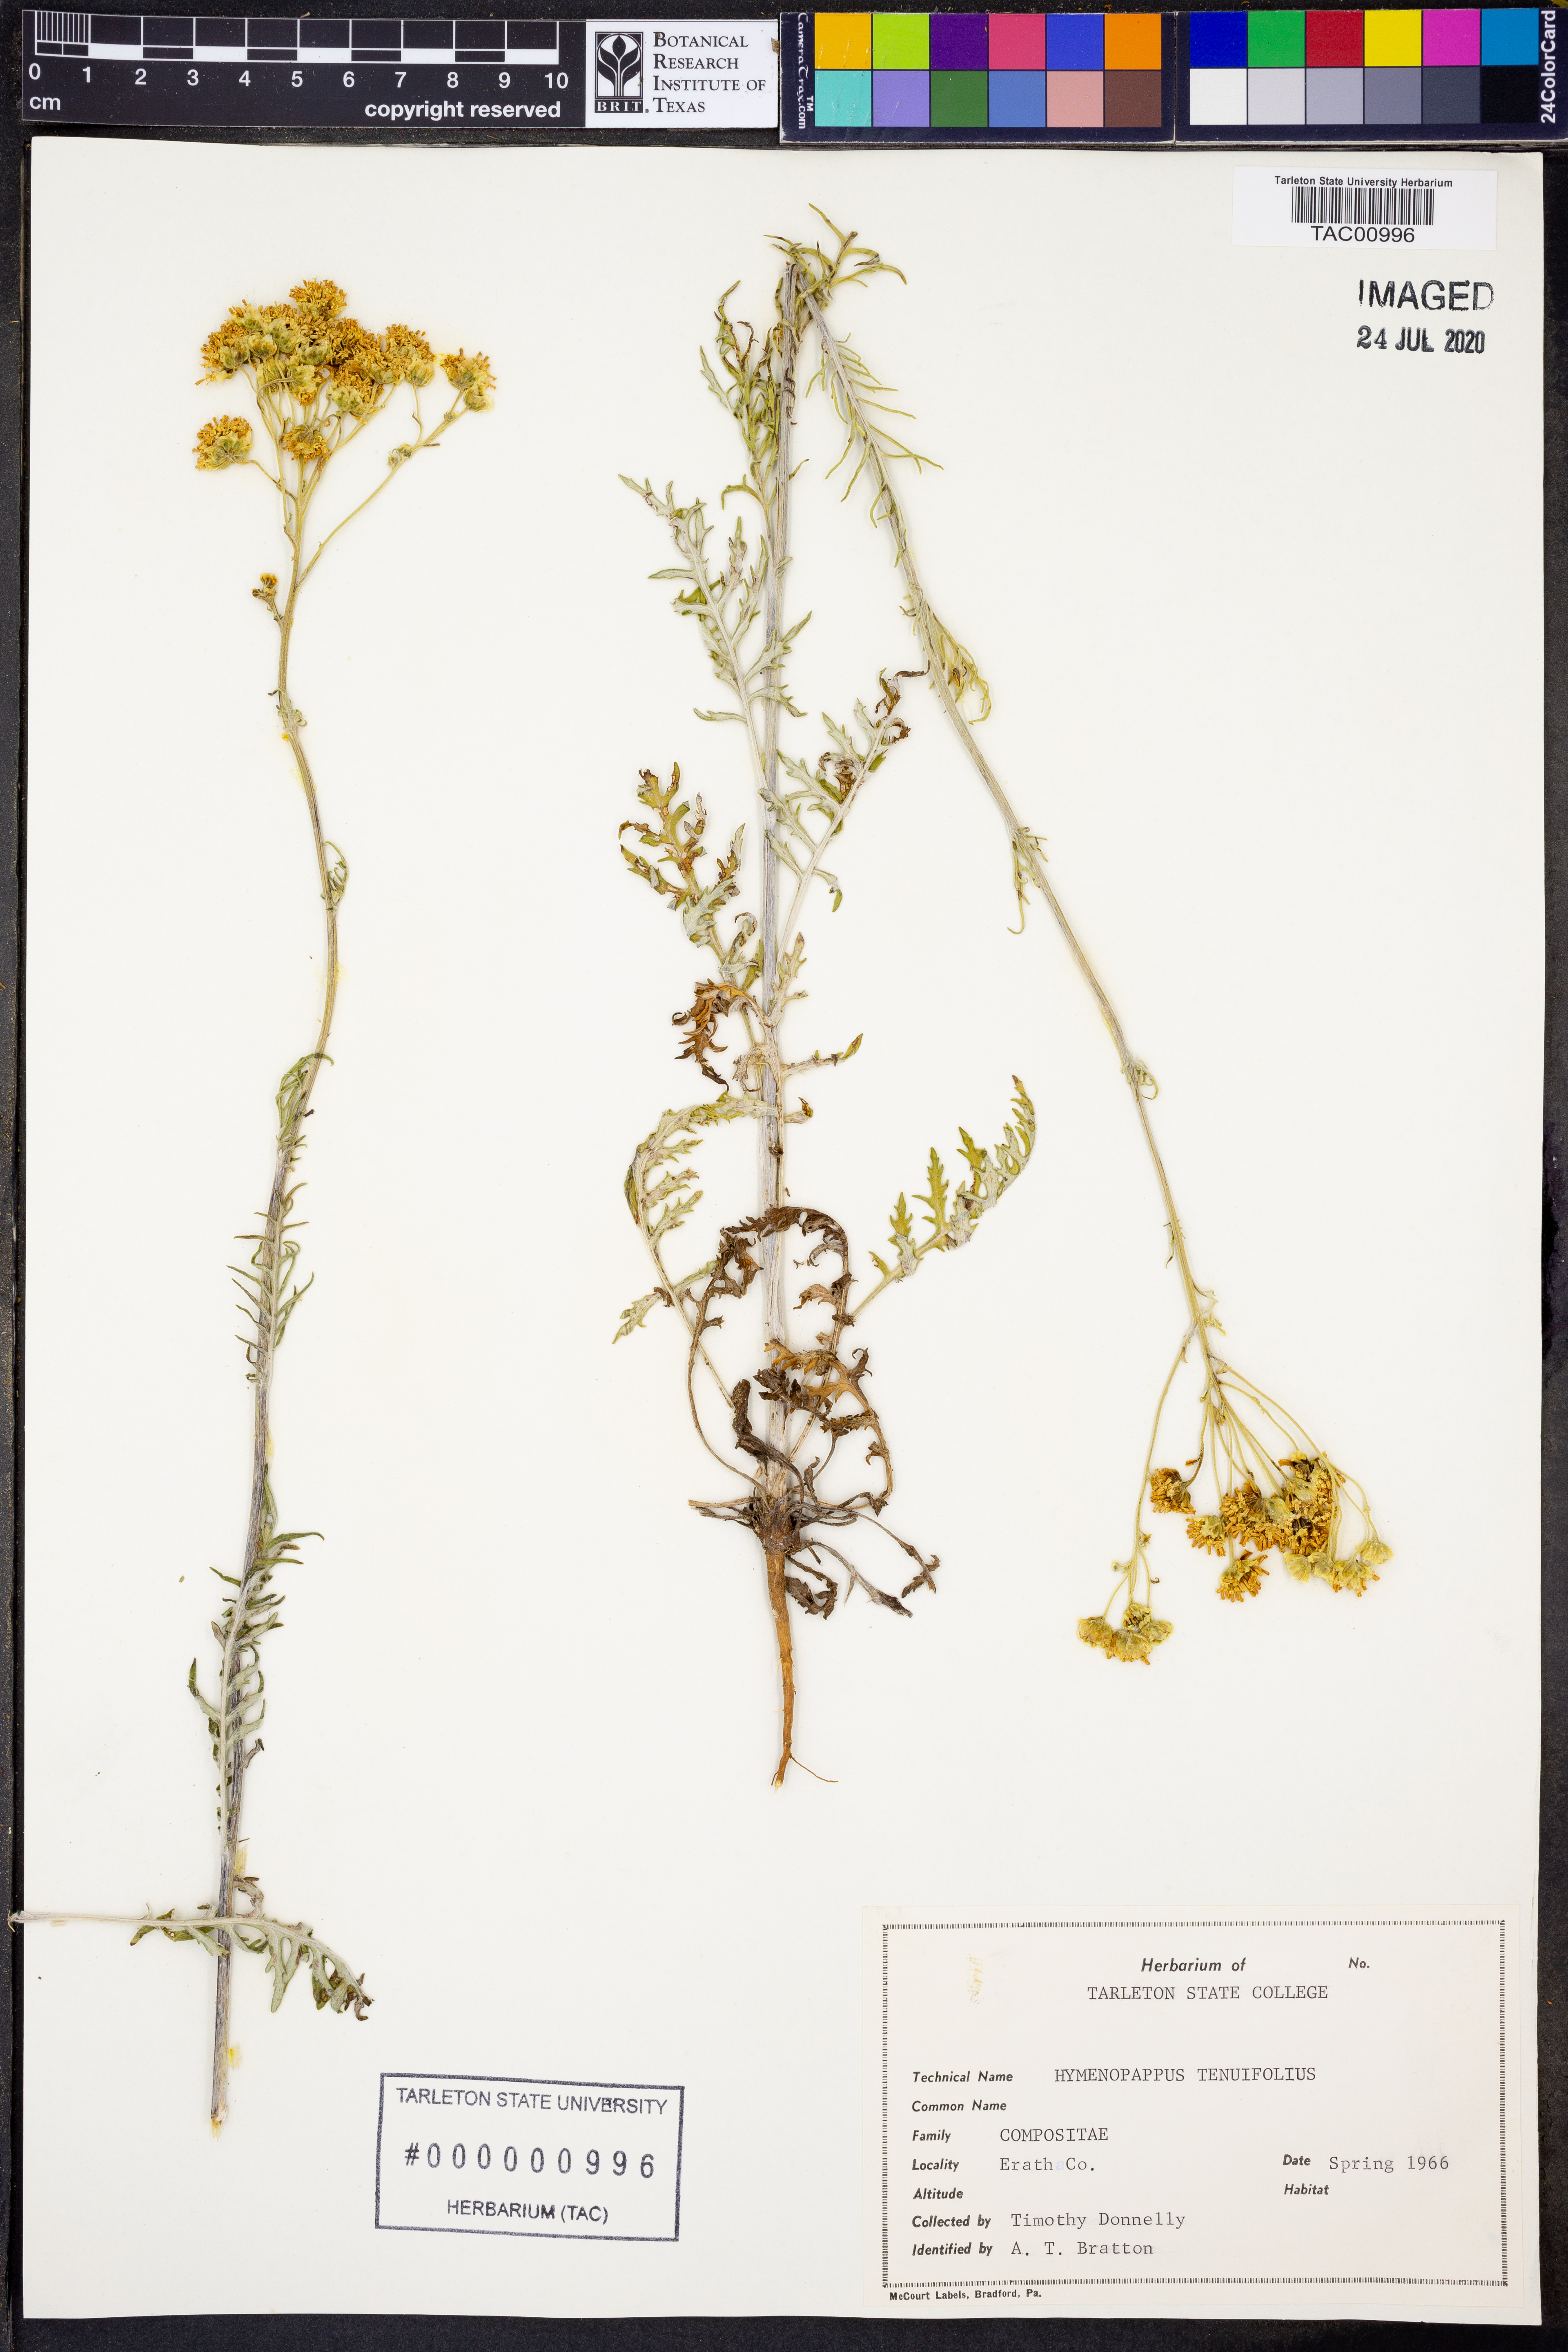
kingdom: Plantae
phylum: Tracheophyta
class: Magnoliopsida
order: Asterales
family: Asteraceae
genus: Hymenopappus
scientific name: Hymenopappus tenuifolius
